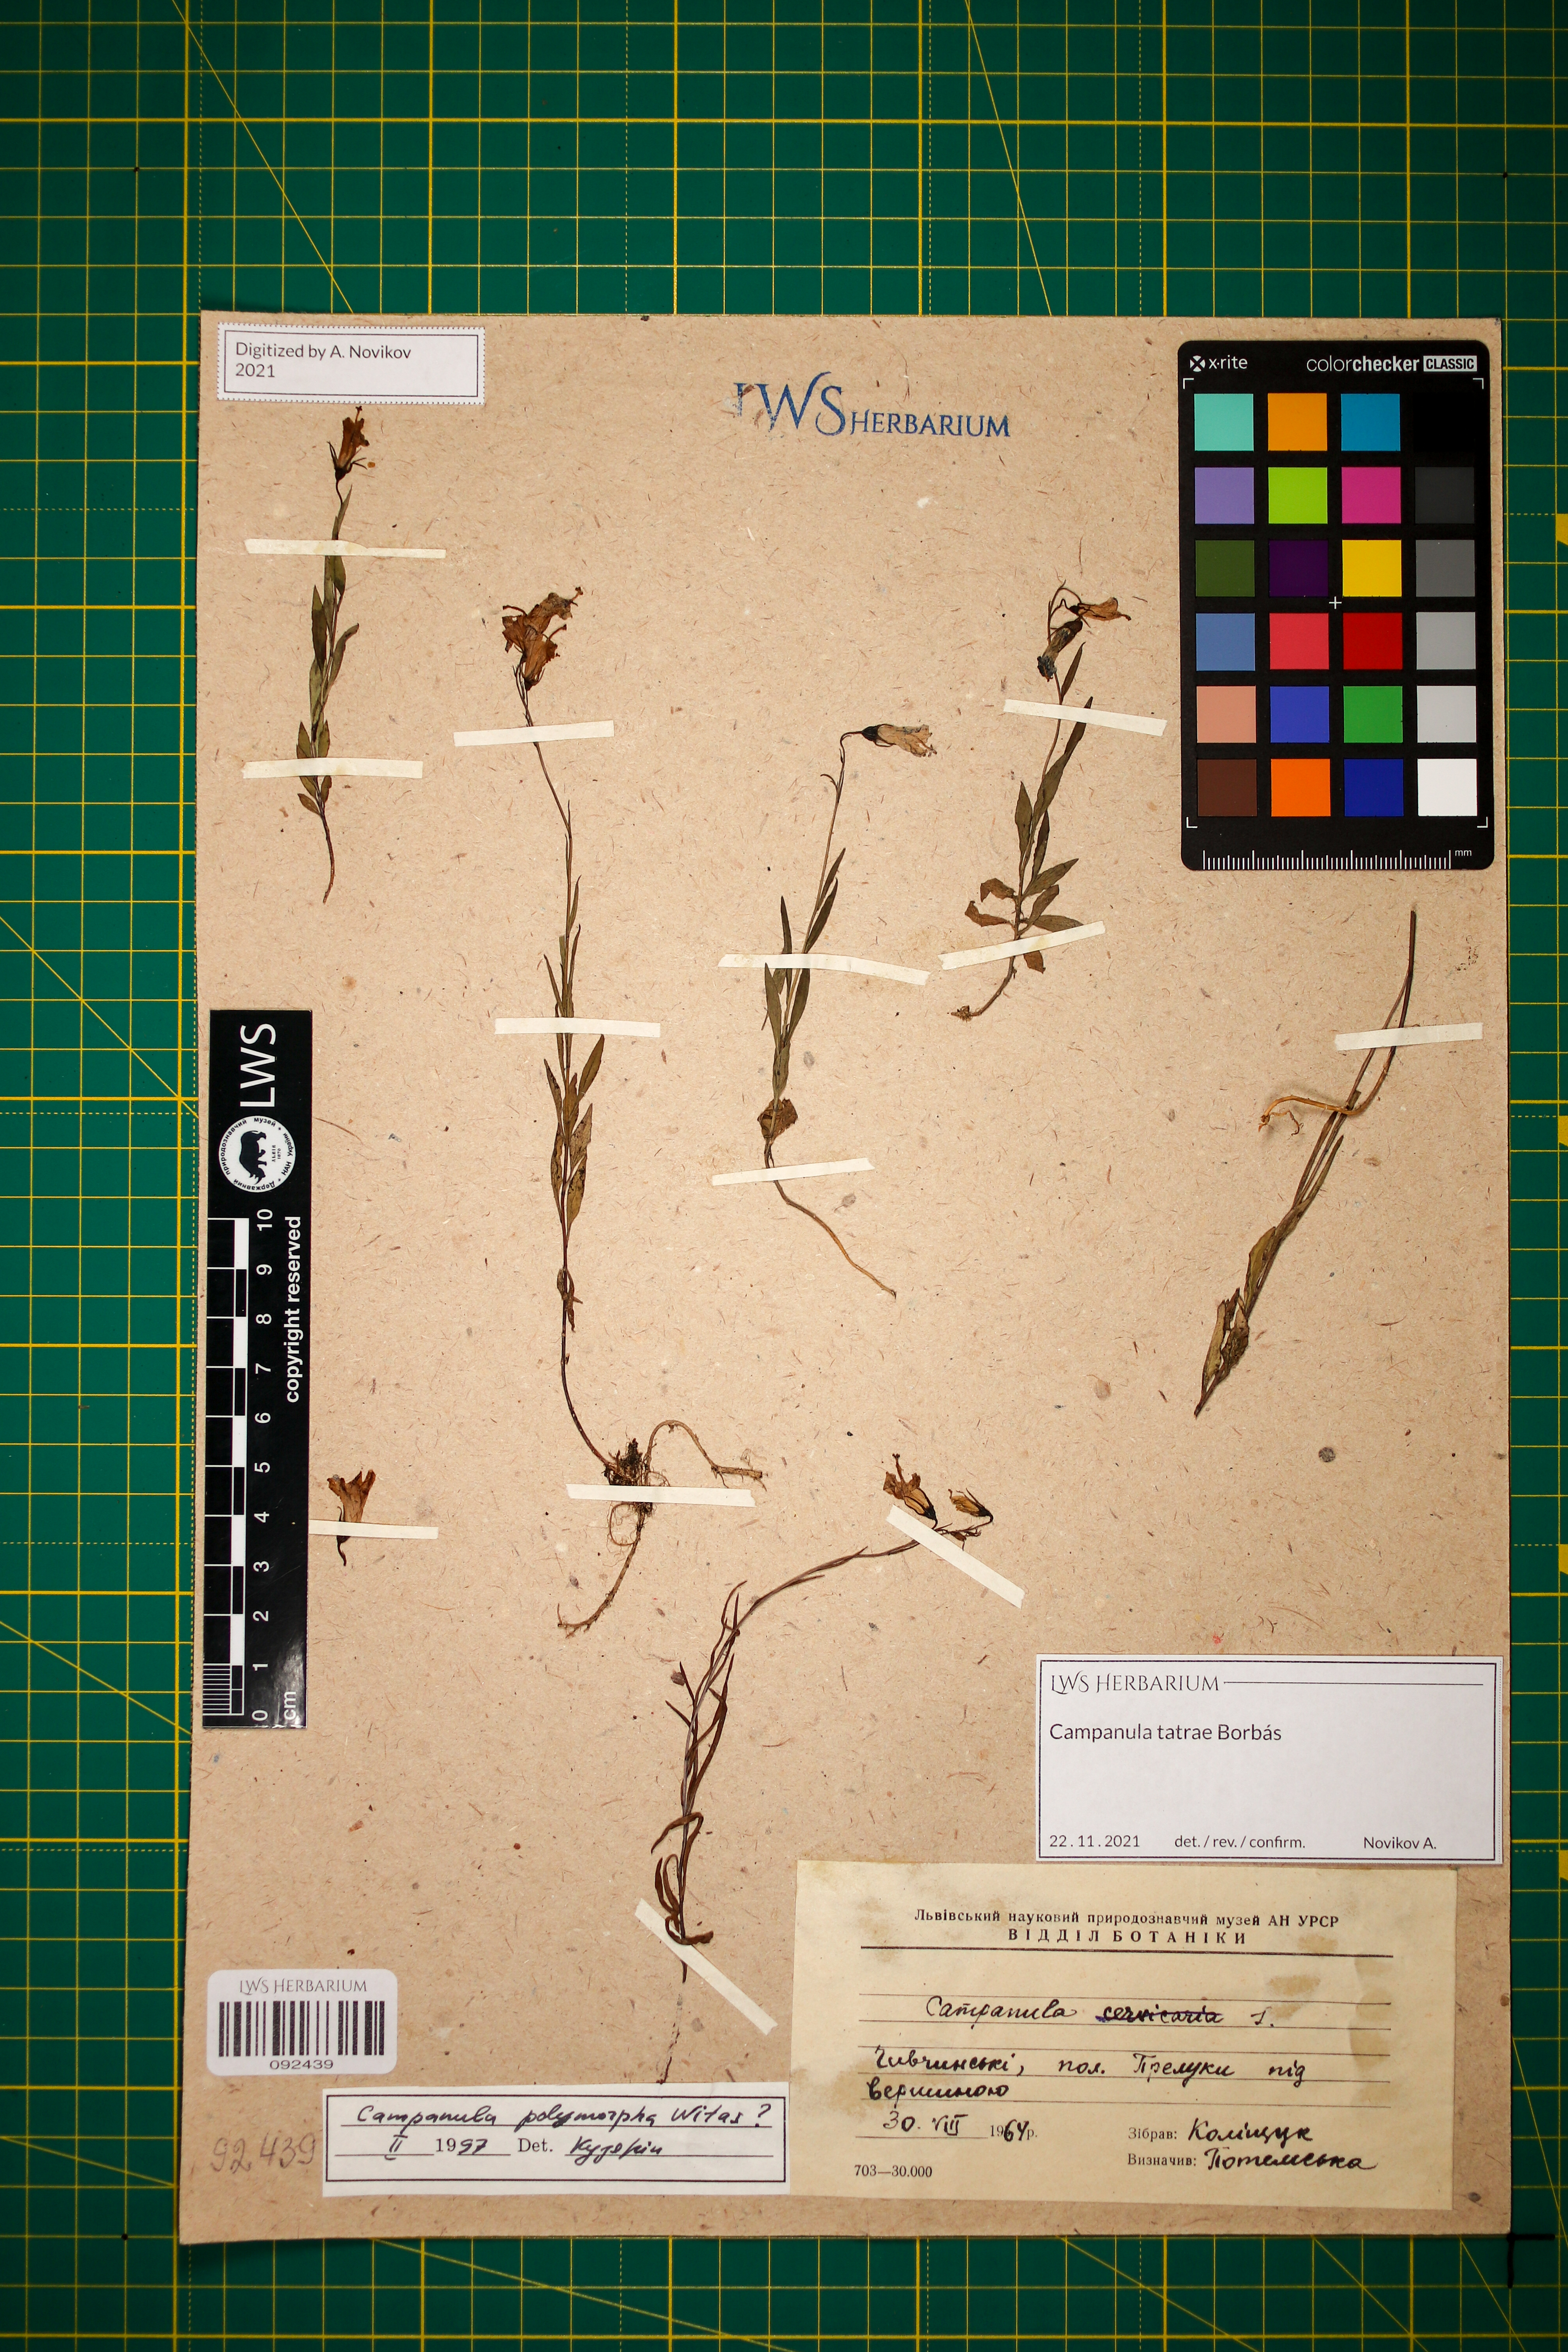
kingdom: Plantae
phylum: Tracheophyta
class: Magnoliopsida
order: Asterales
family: Campanulaceae
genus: Campanula
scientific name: Campanula tatrae
